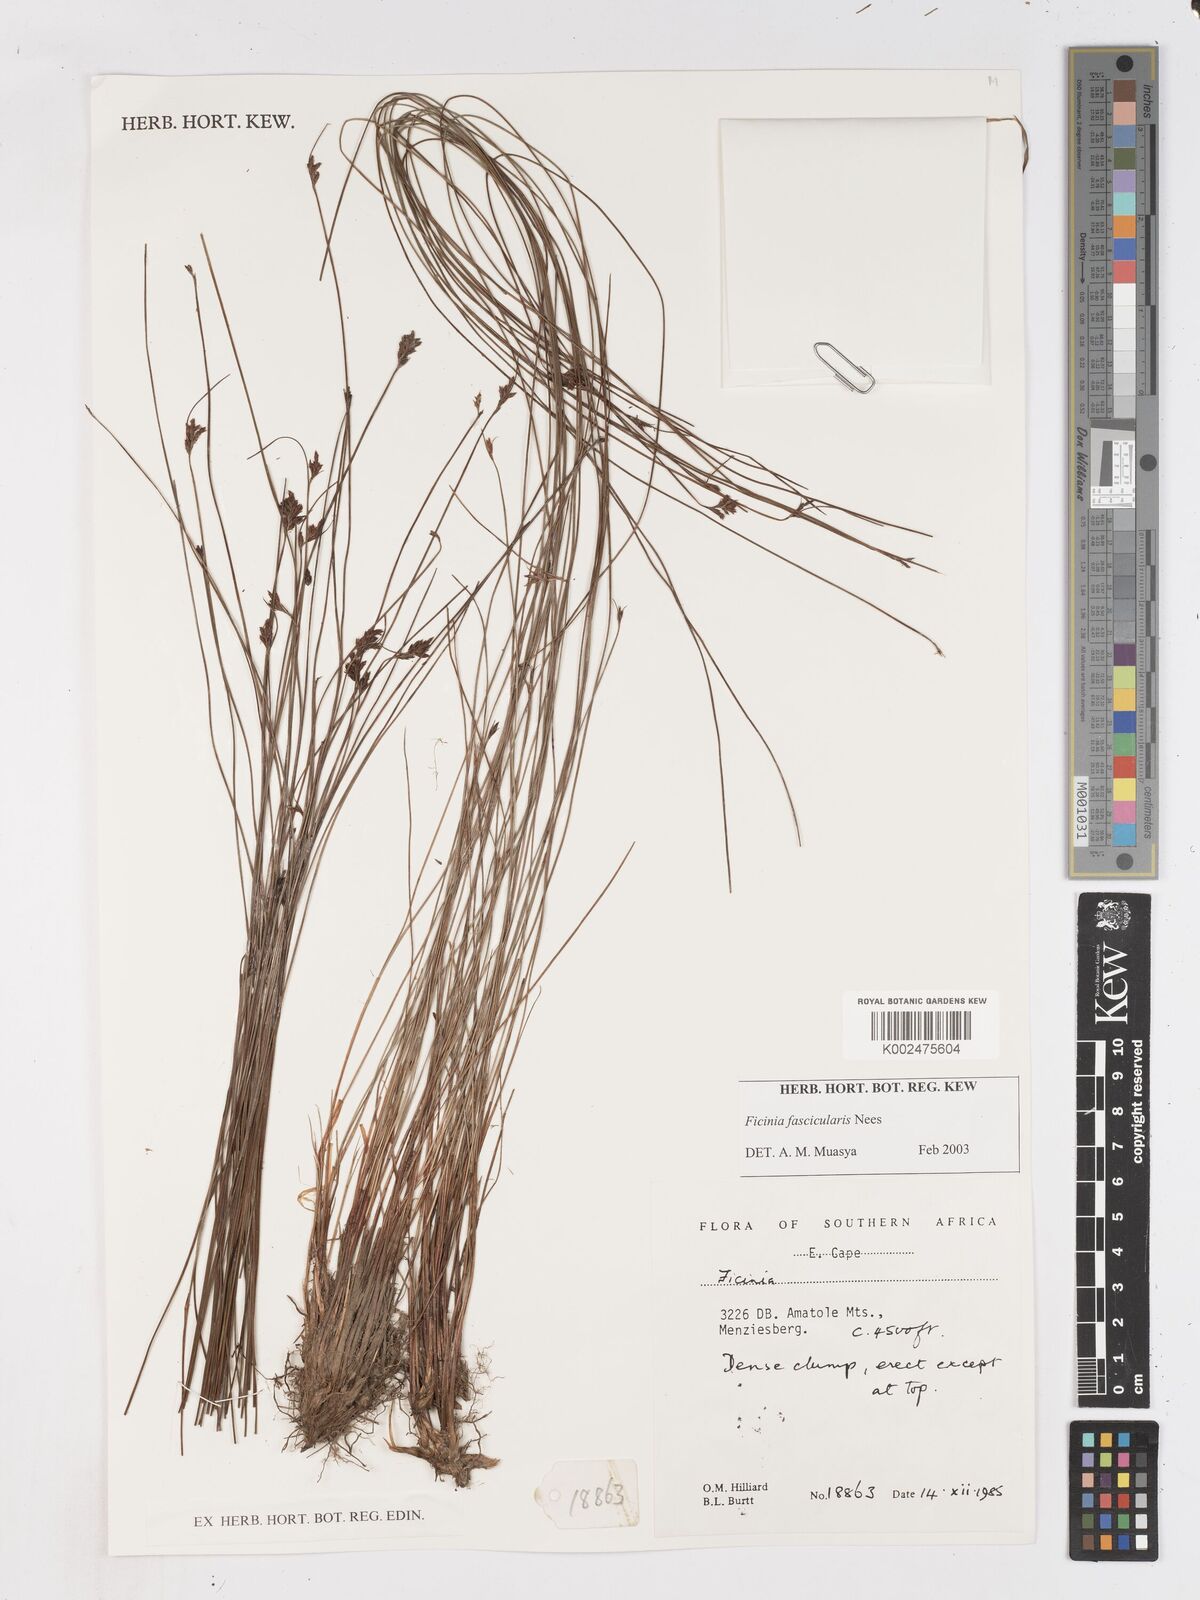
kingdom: Plantae
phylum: Tracheophyta
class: Liliopsida
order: Poales
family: Cyperaceae
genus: Ficinia
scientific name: Ficinia fascicularis
